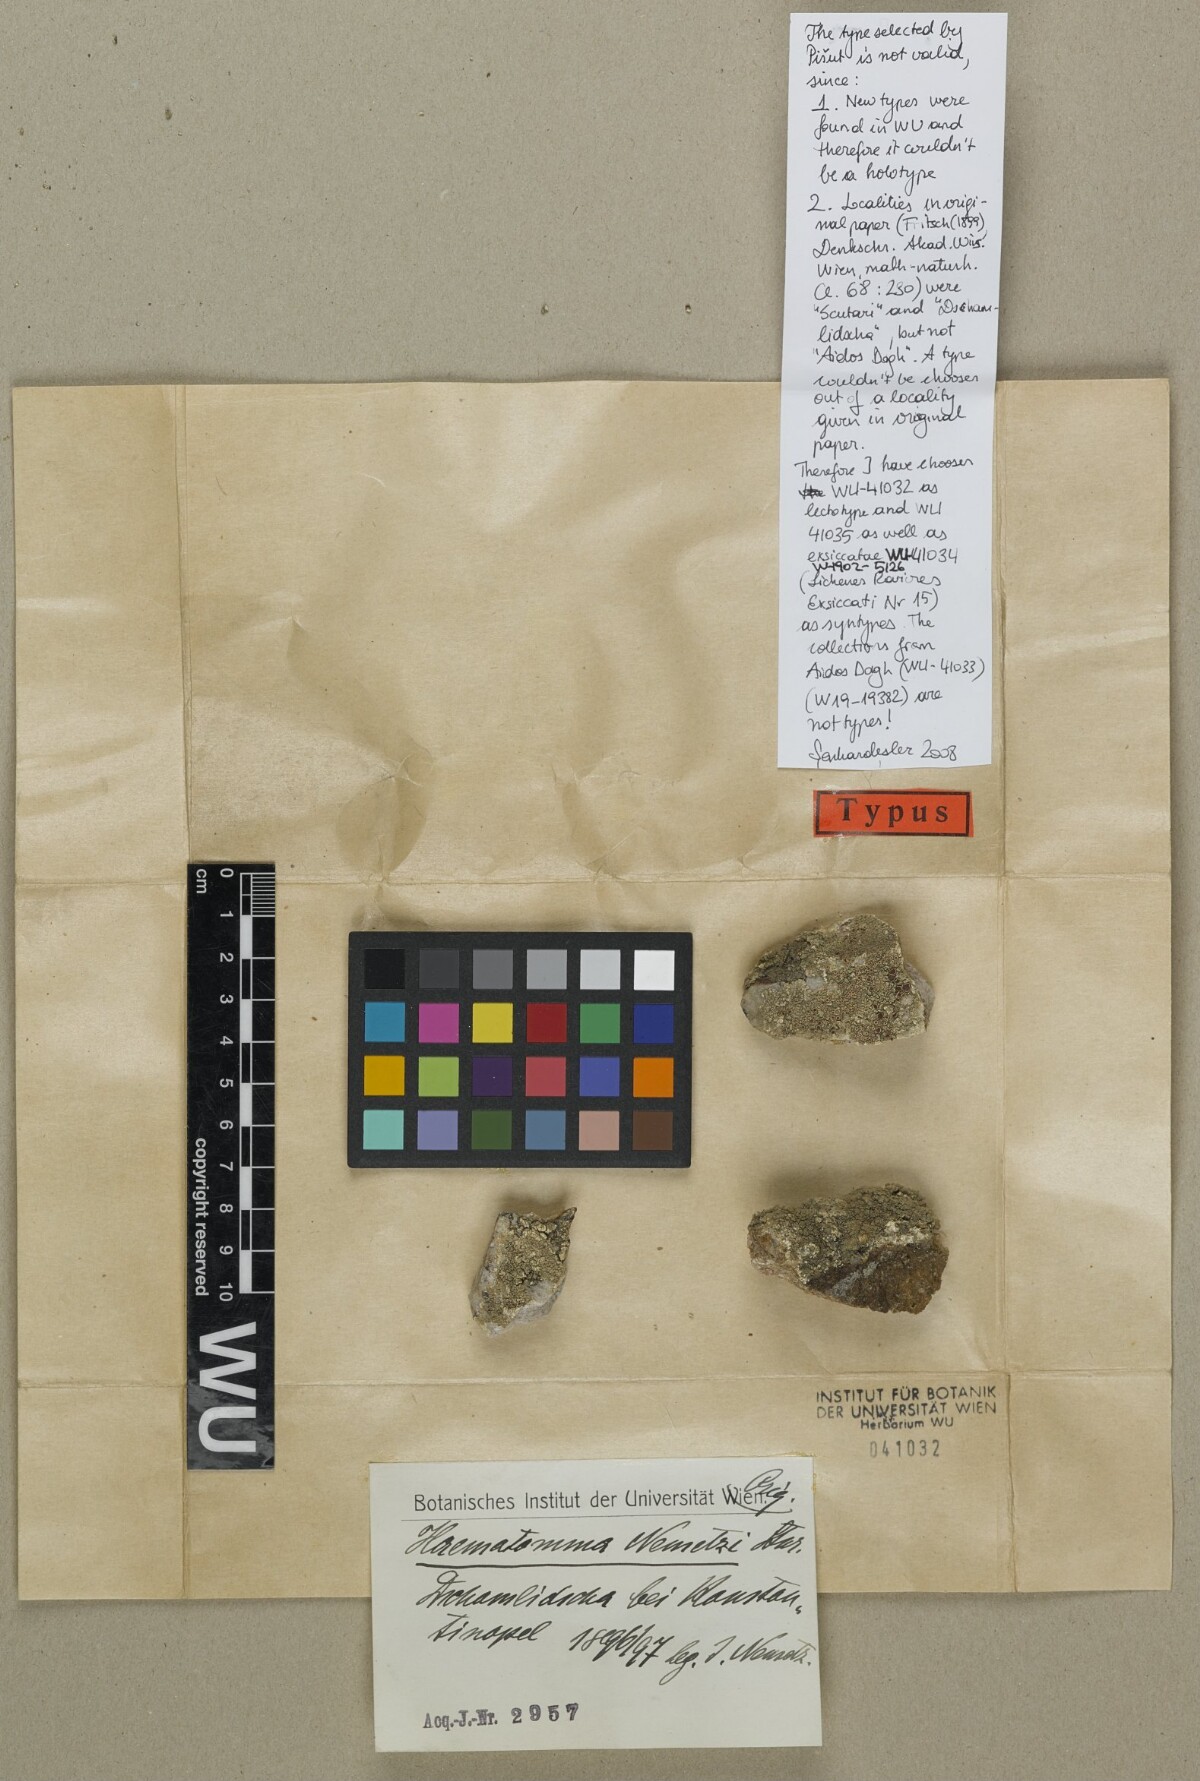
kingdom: Fungi
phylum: Ascomycota
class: Lecanoromycetes
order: Lecanorales
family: Haematommataceae
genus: Haematomma
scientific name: Haematomma nemetzii
